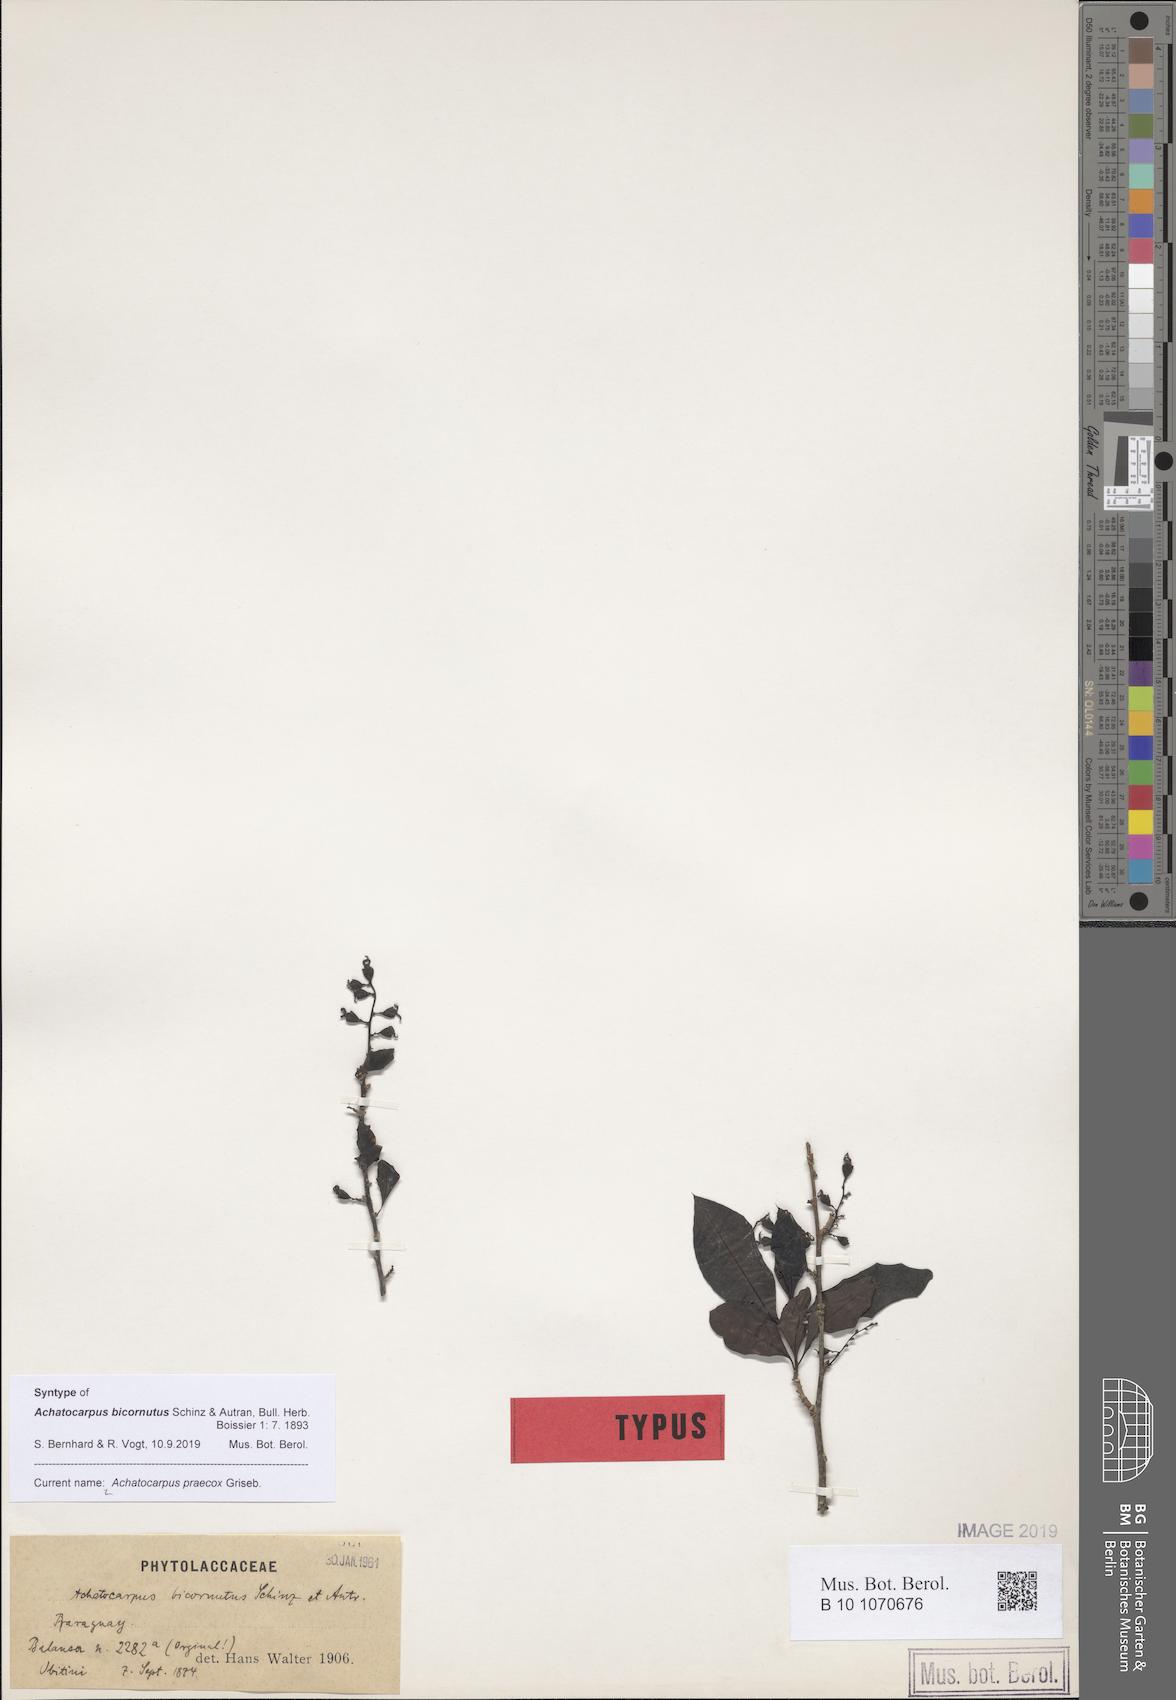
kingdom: Plantae
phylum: Tracheophyta
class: Magnoliopsida
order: Caryophyllales
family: Achatocarpaceae
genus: Achatocarpus
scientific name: Achatocarpus praecox
